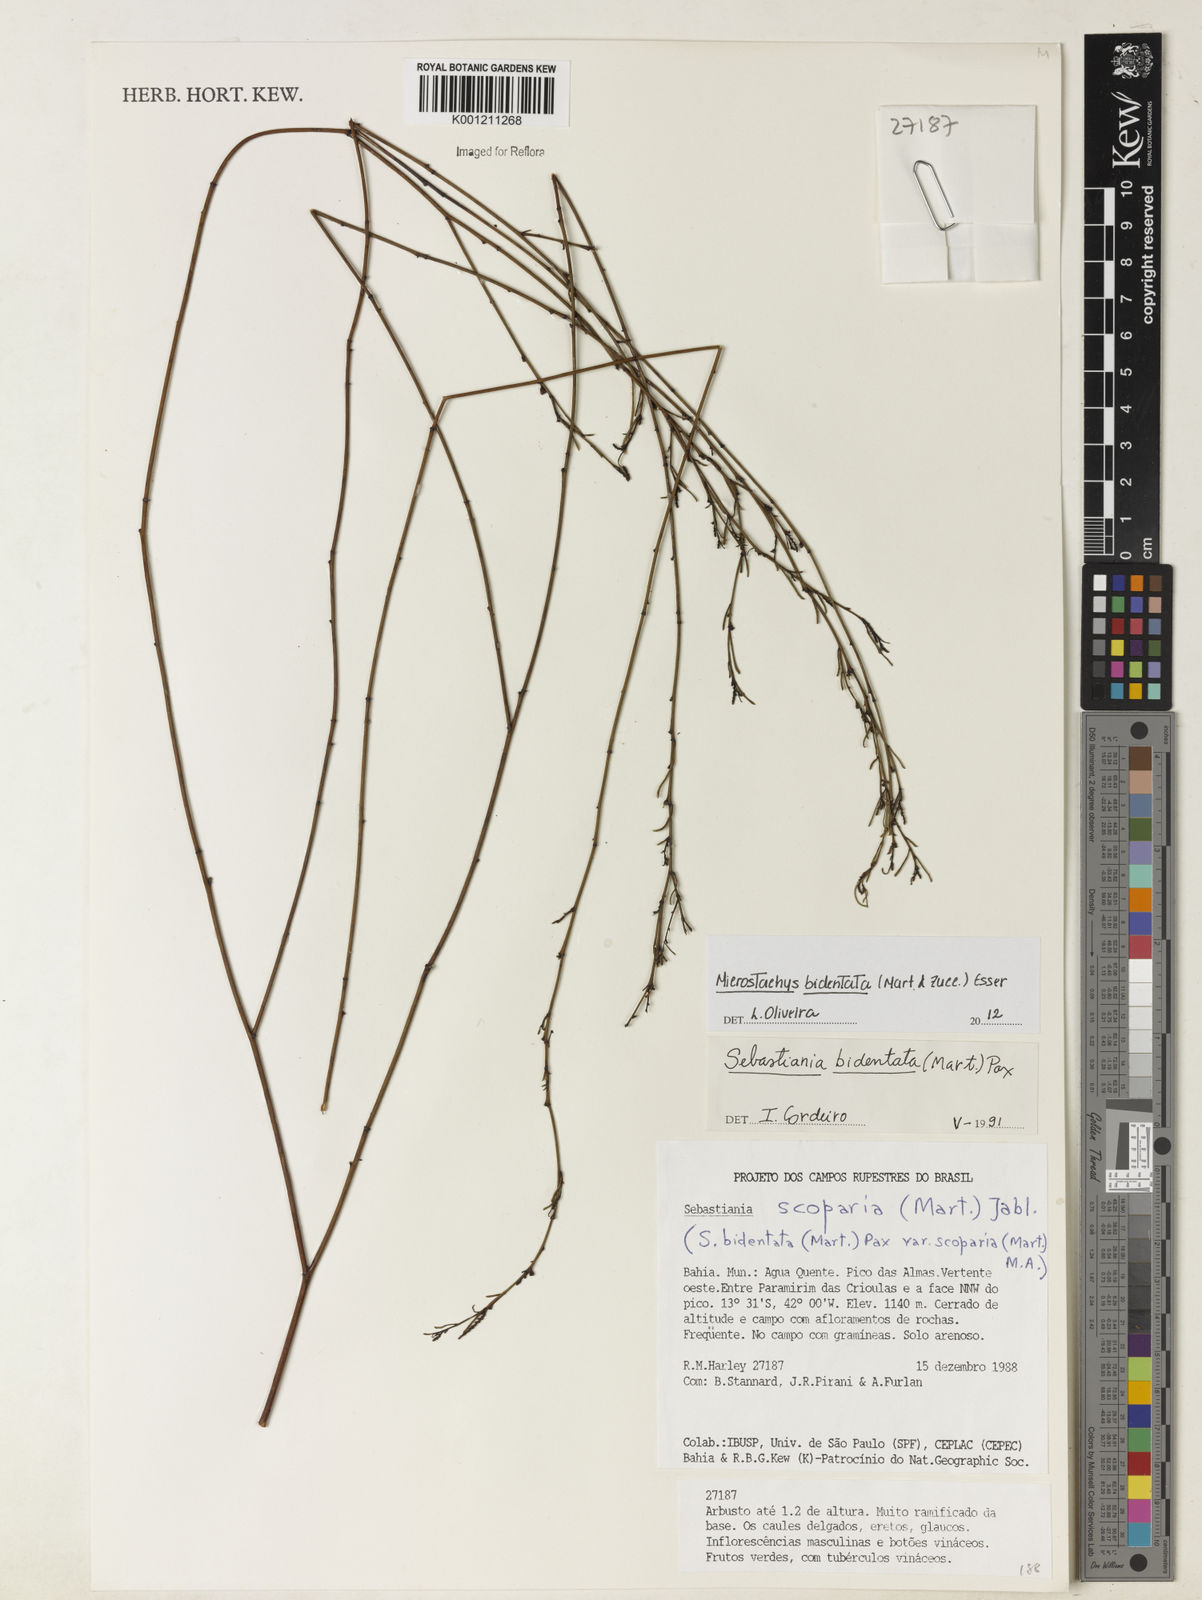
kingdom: Plantae
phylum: Tracheophyta
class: Magnoliopsida
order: Malpighiales
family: Euphorbiaceae
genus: Microstachys
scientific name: Microstachys bidentata
